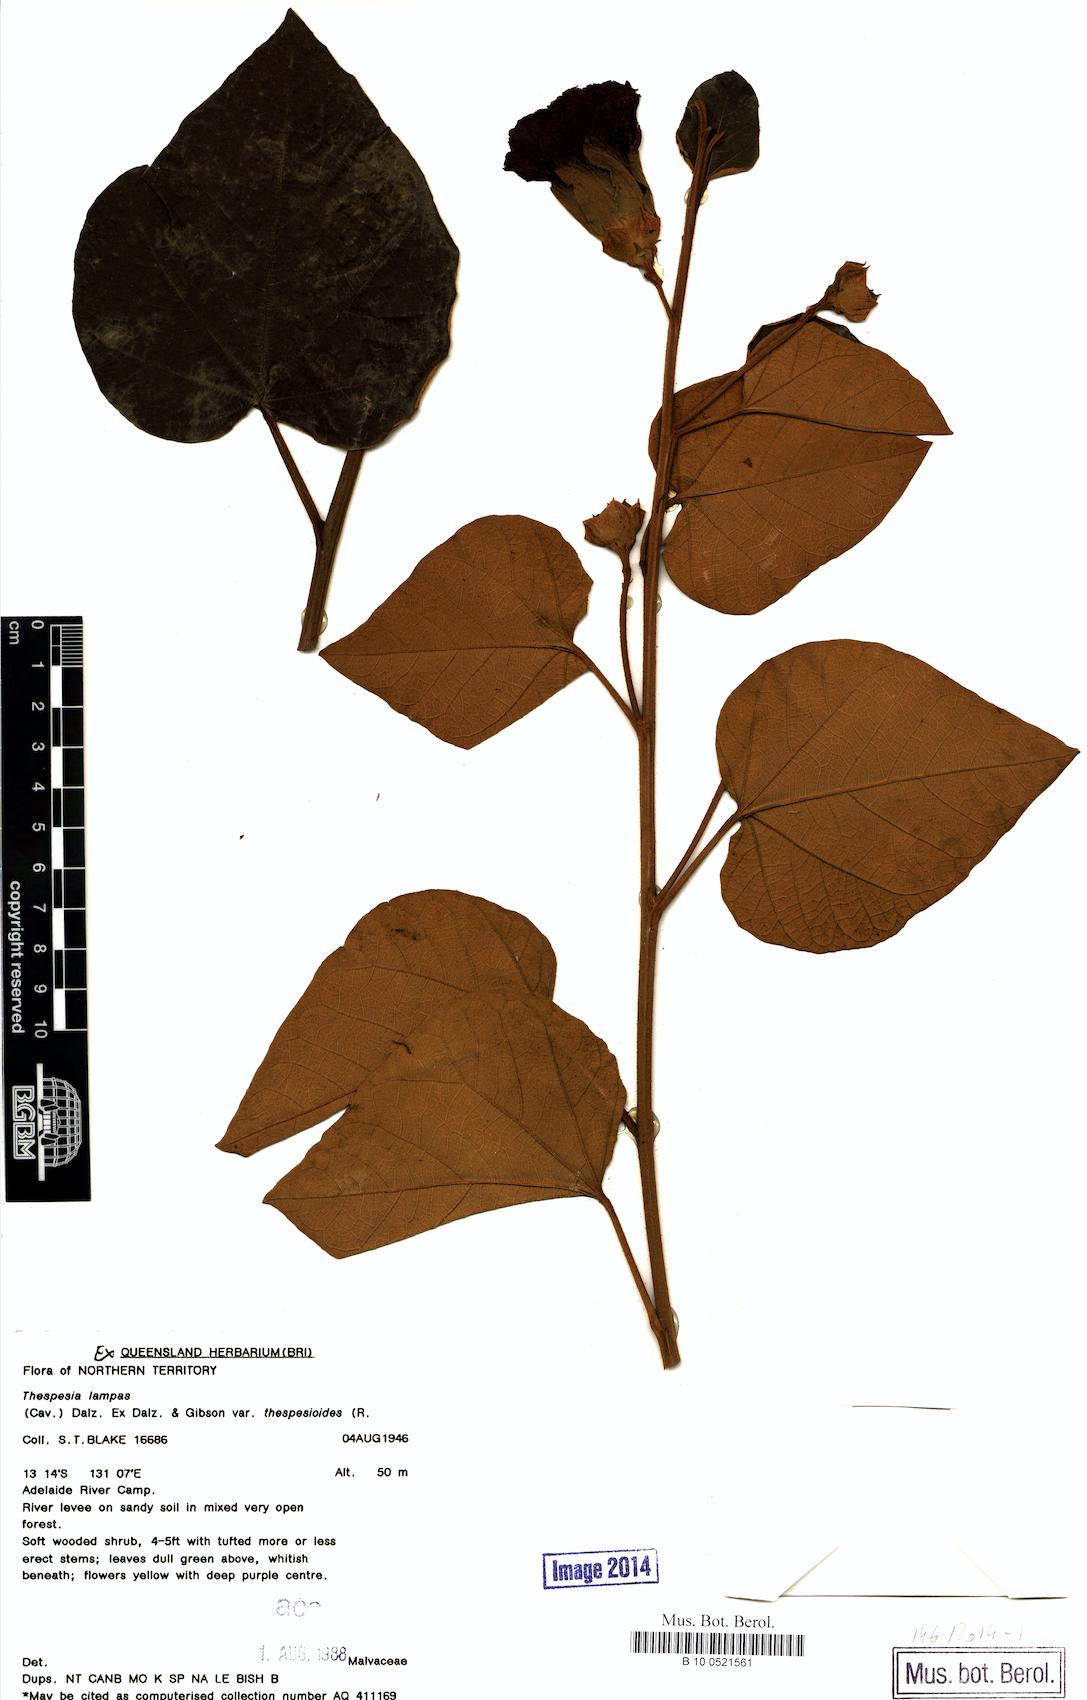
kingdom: Plantae
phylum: Tracheophyta
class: Magnoliopsida
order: Malvales
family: Malvaceae
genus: Thespesia
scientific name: Thespesia thespesioides
